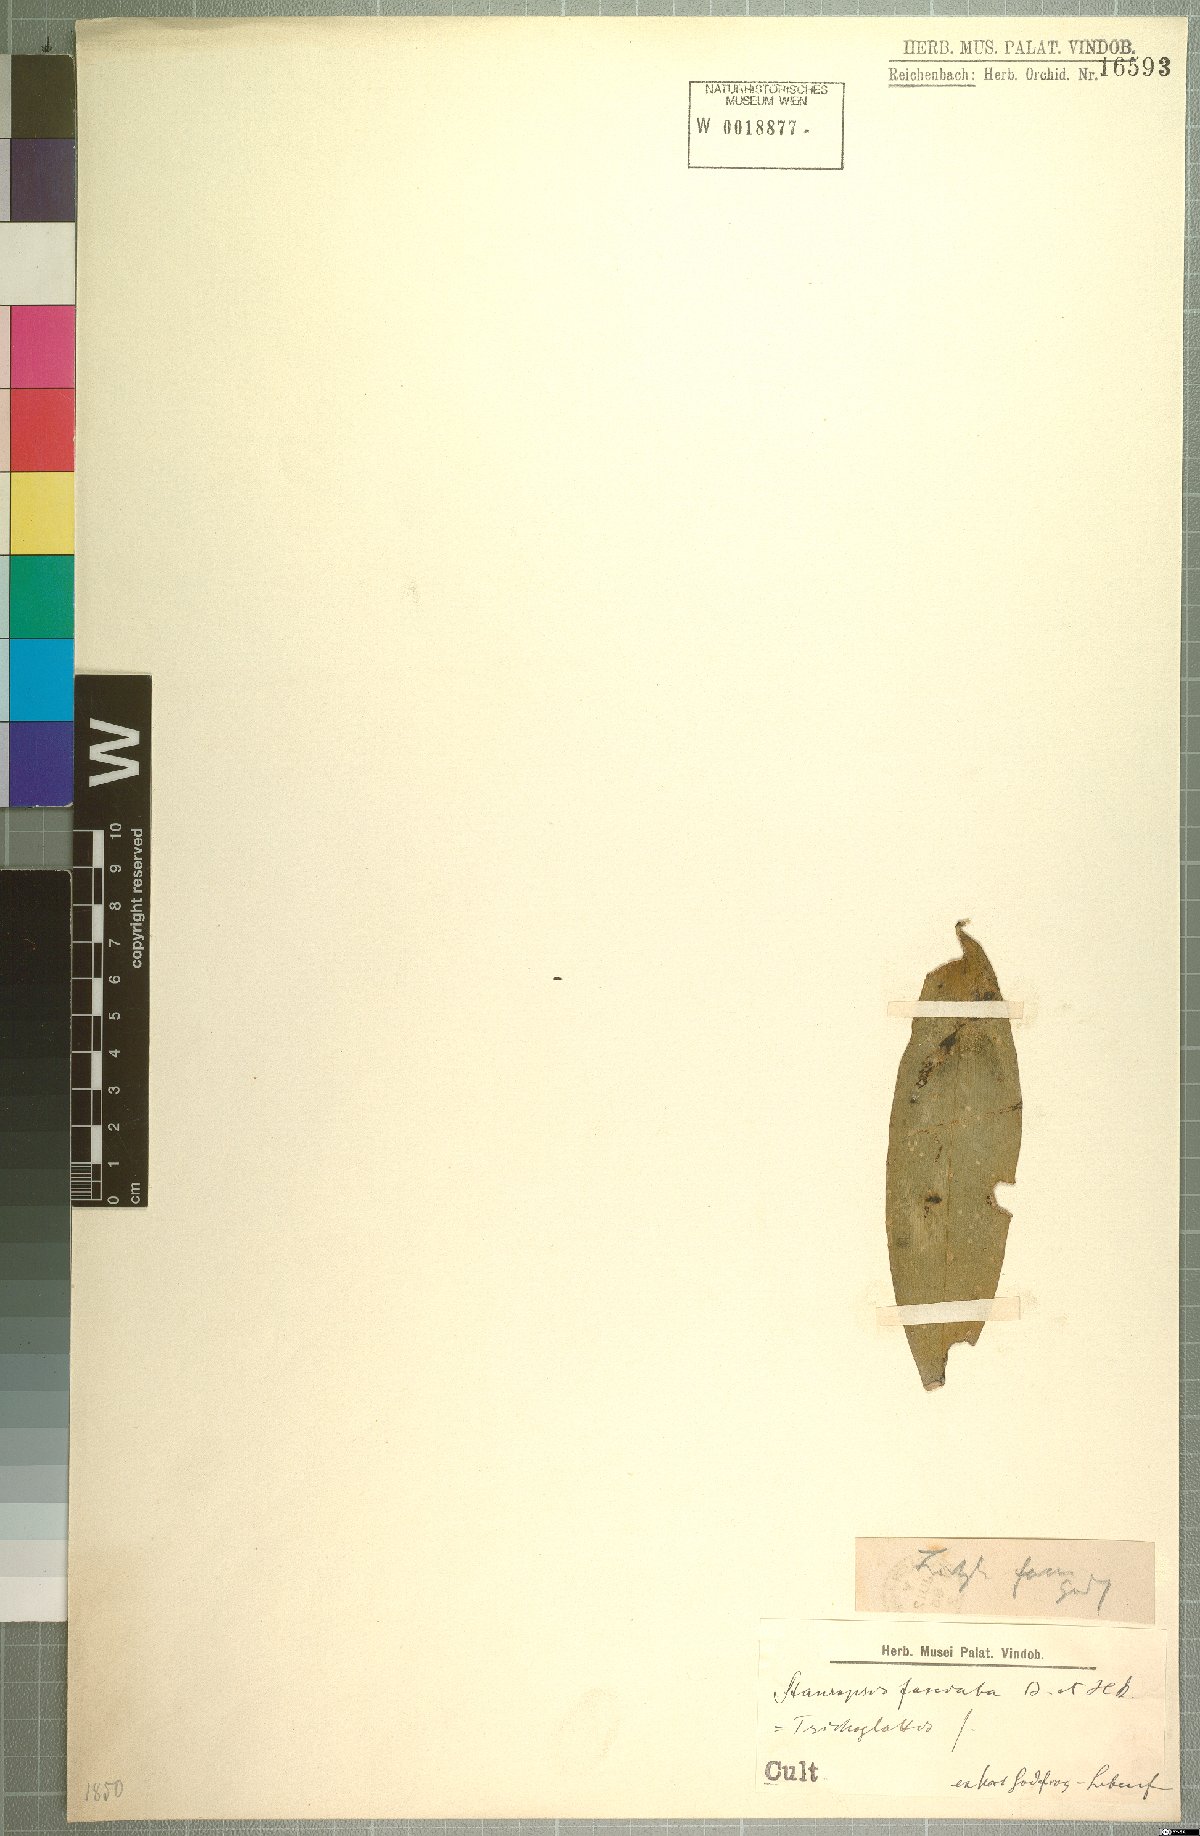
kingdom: Plantae
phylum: Tracheophyta
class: Liliopsida
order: Asparagales
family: Orchidaceae
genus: Trichoglottis
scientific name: Trichoglottis fasciata
